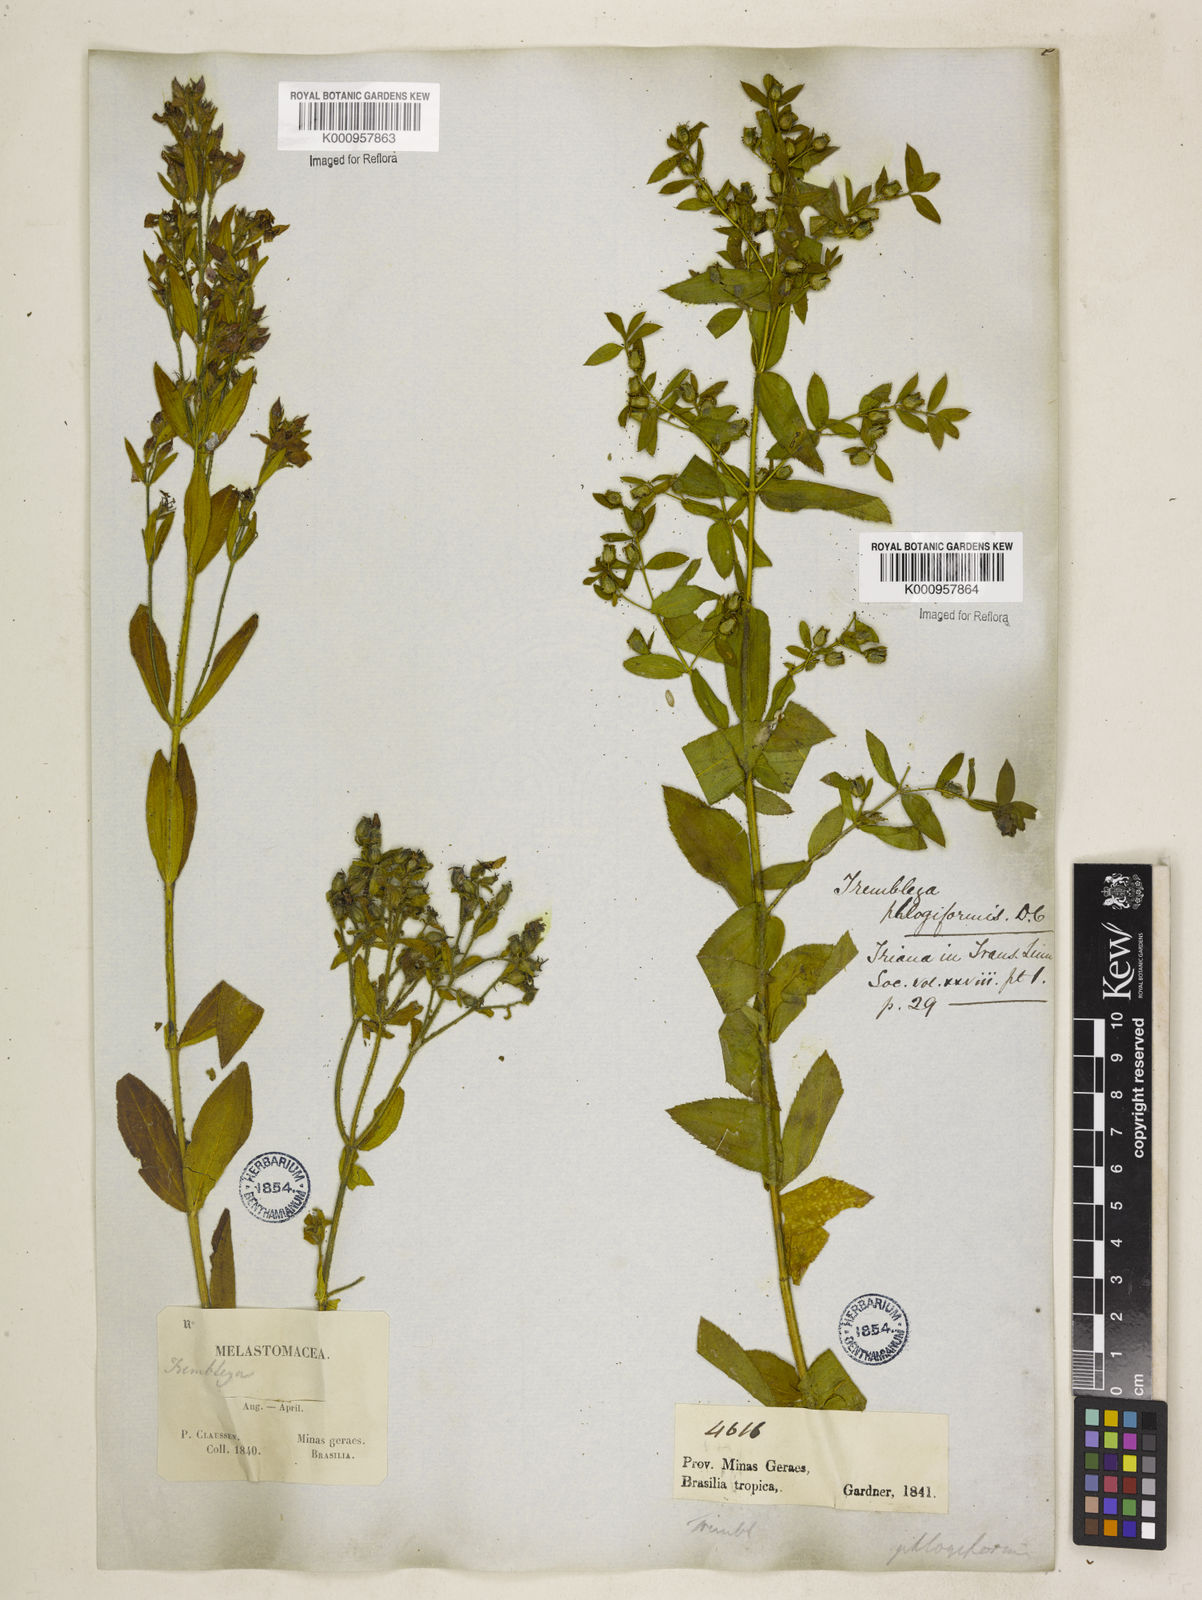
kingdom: Plantae
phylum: Tracheophyta
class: Magnoliopsida
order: Myrtales
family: Melastomataceae
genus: Microlicia
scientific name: Microlicia phlogiformis
